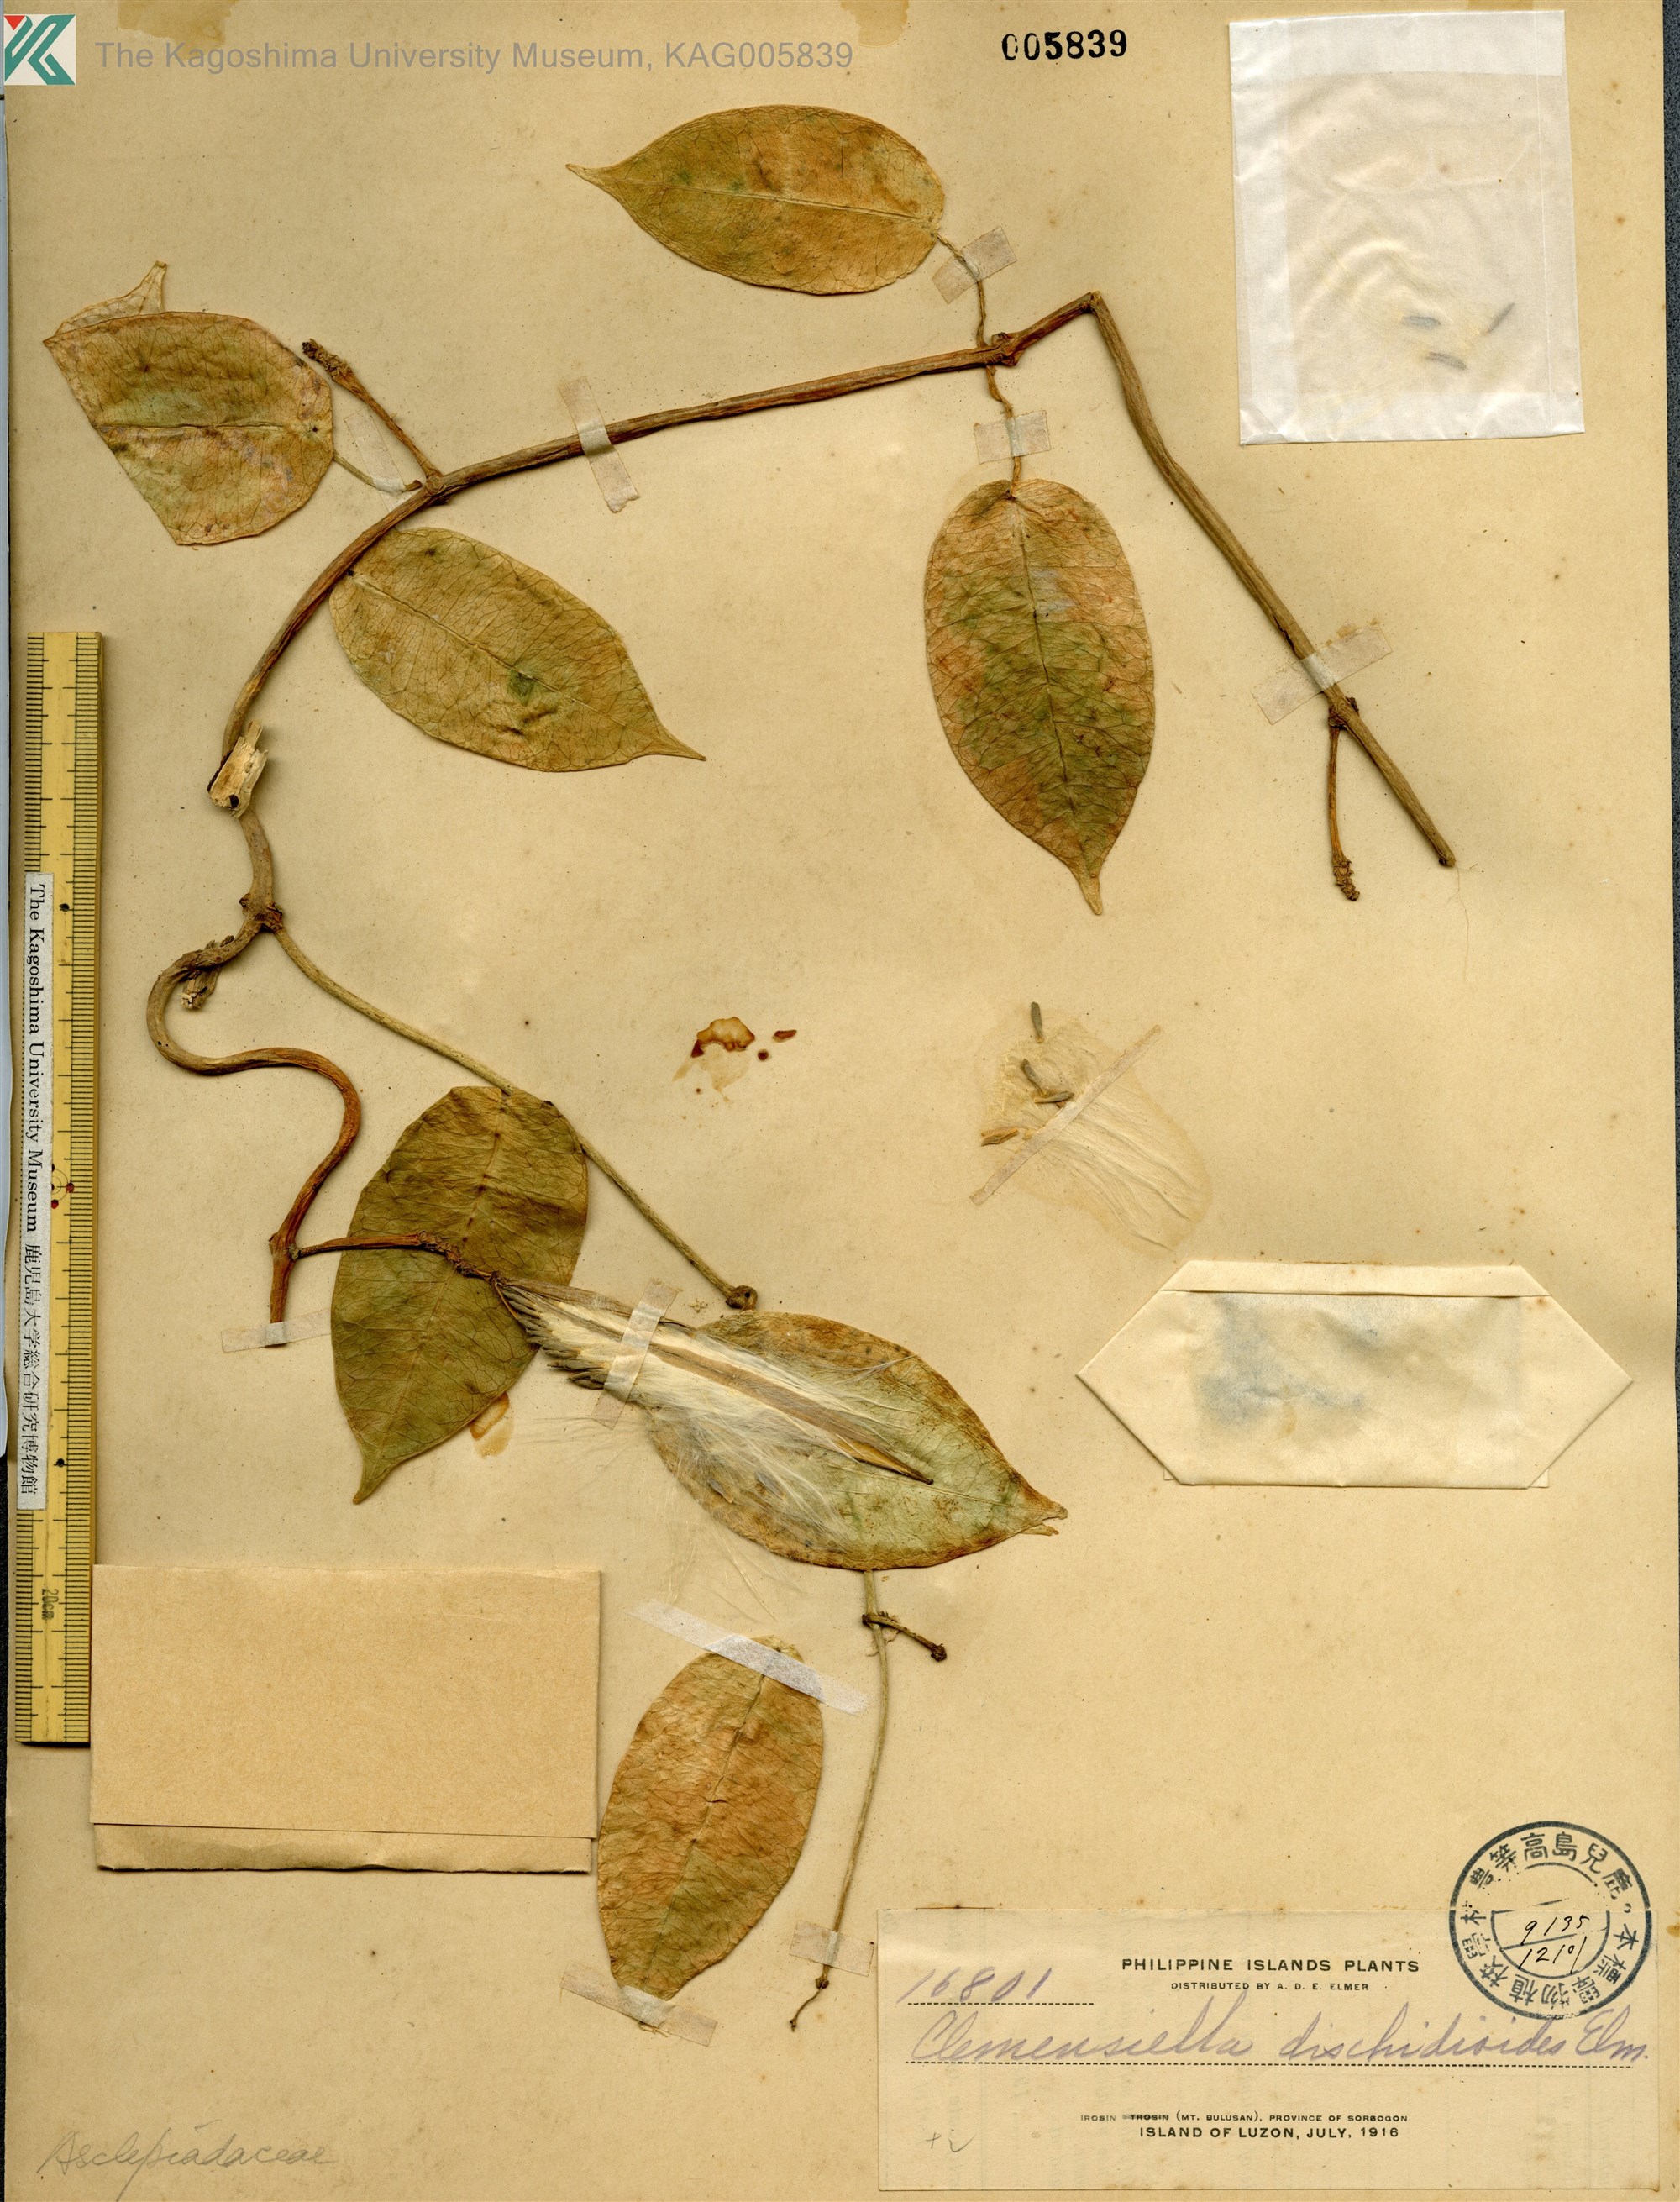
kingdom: Plantae
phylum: Tracheophyta
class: Magnoliopsida
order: Gentianales
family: Apocynaceae
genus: Hoya
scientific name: Hoya mariae
